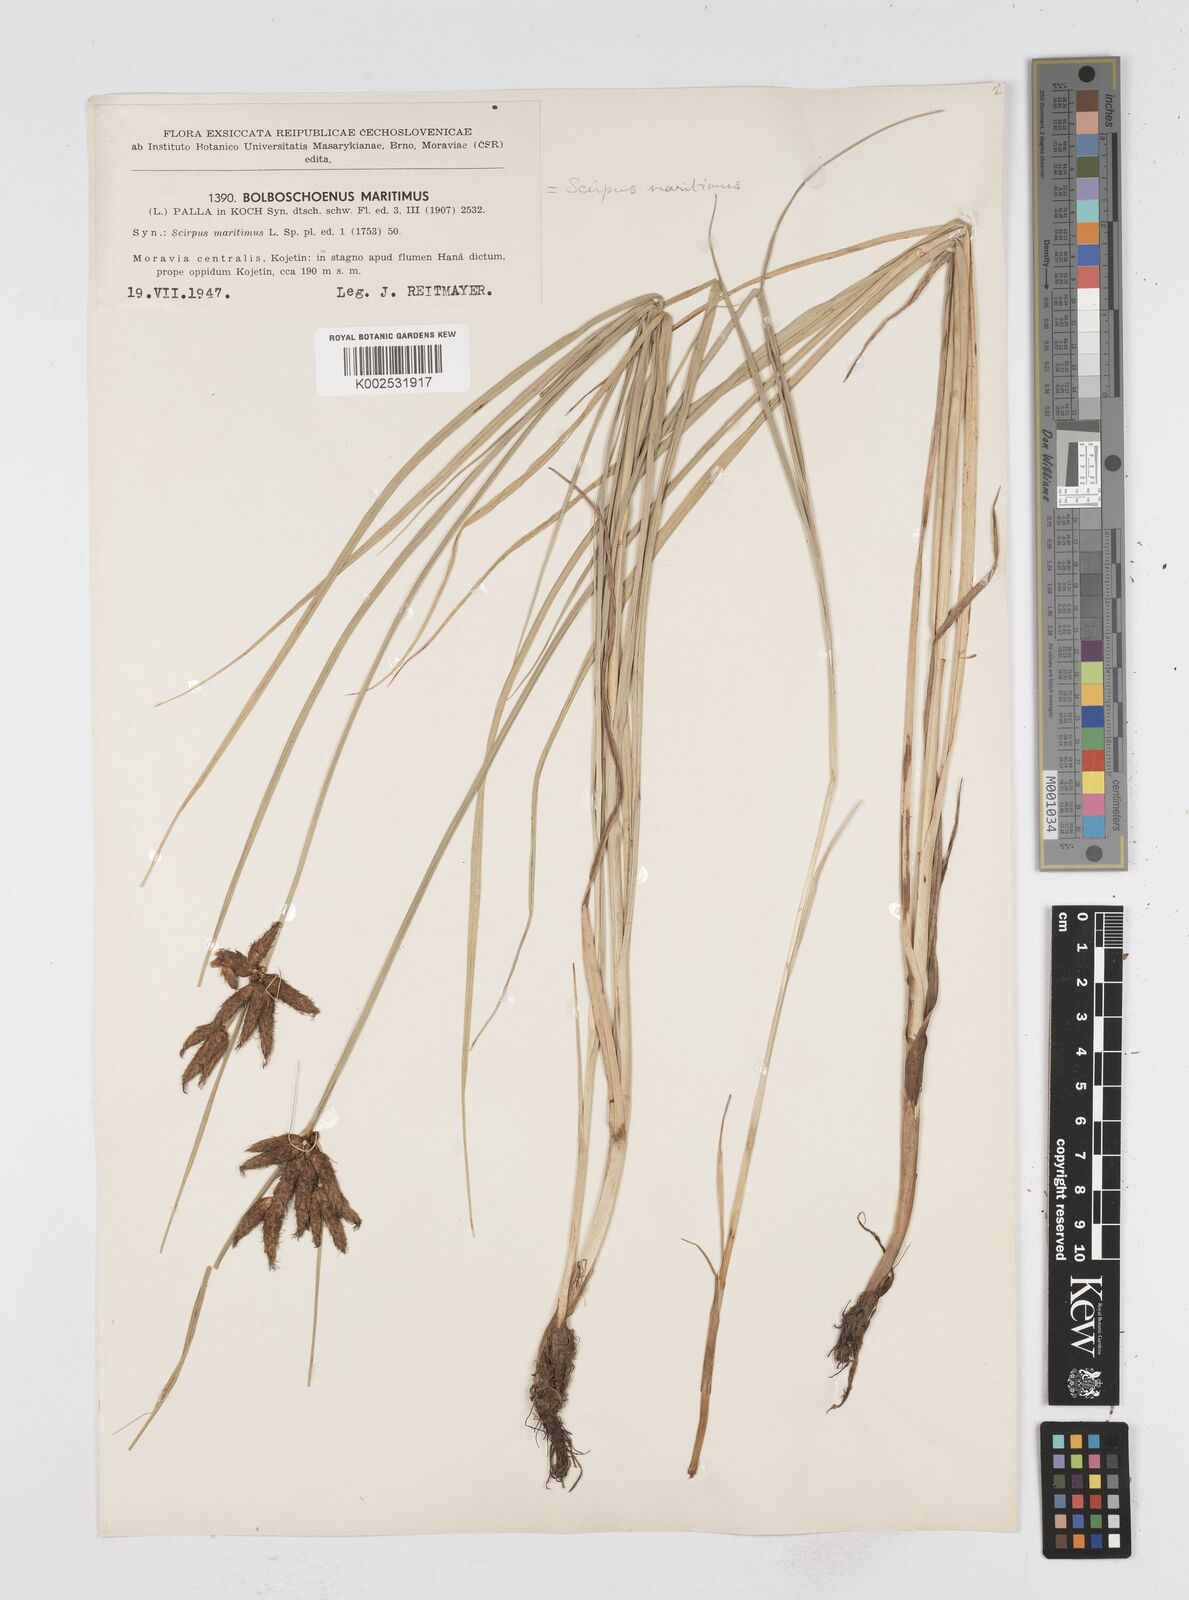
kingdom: Plantae
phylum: Tracheophyta
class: Liliopsida
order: Poales
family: Cyperaceae
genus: Bolboschoenus
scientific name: Bolboschoenus maritimus
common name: Sea club-rush
